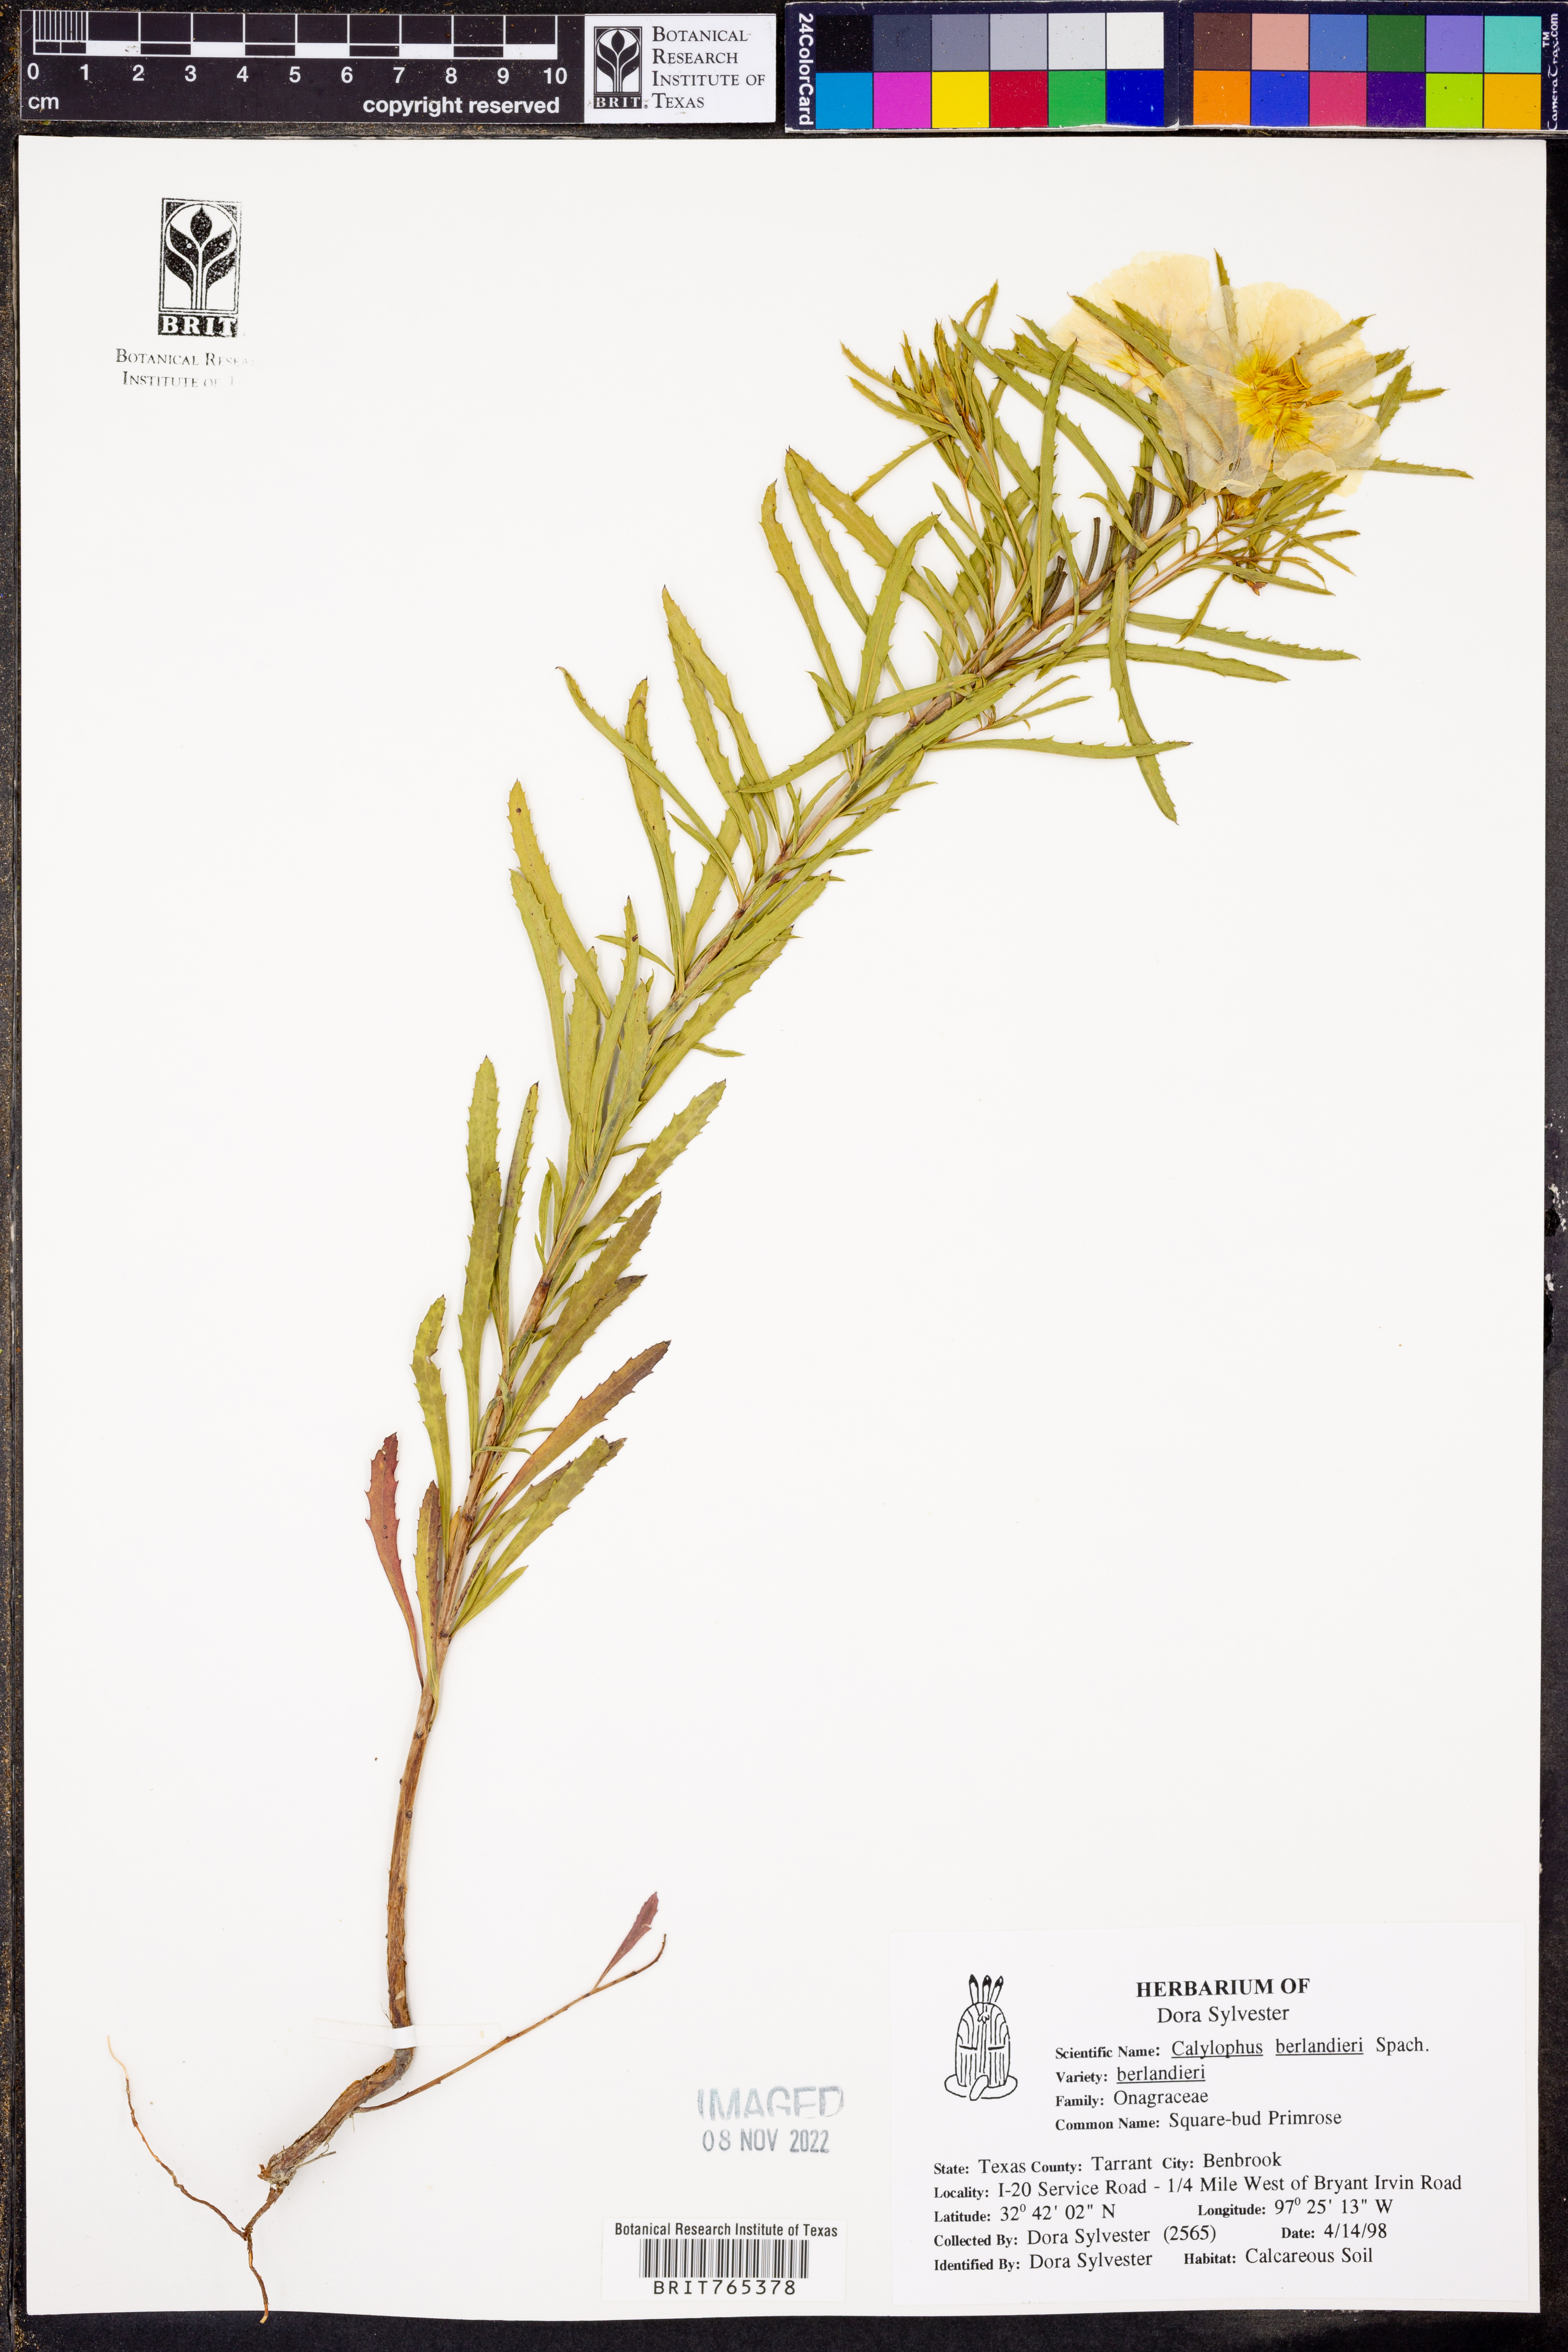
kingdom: Plantae
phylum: Tracheophyta
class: Magnoliopsida
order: Myrtales
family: Onagraceae
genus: Oenothera
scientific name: Oenothera capillifolia
